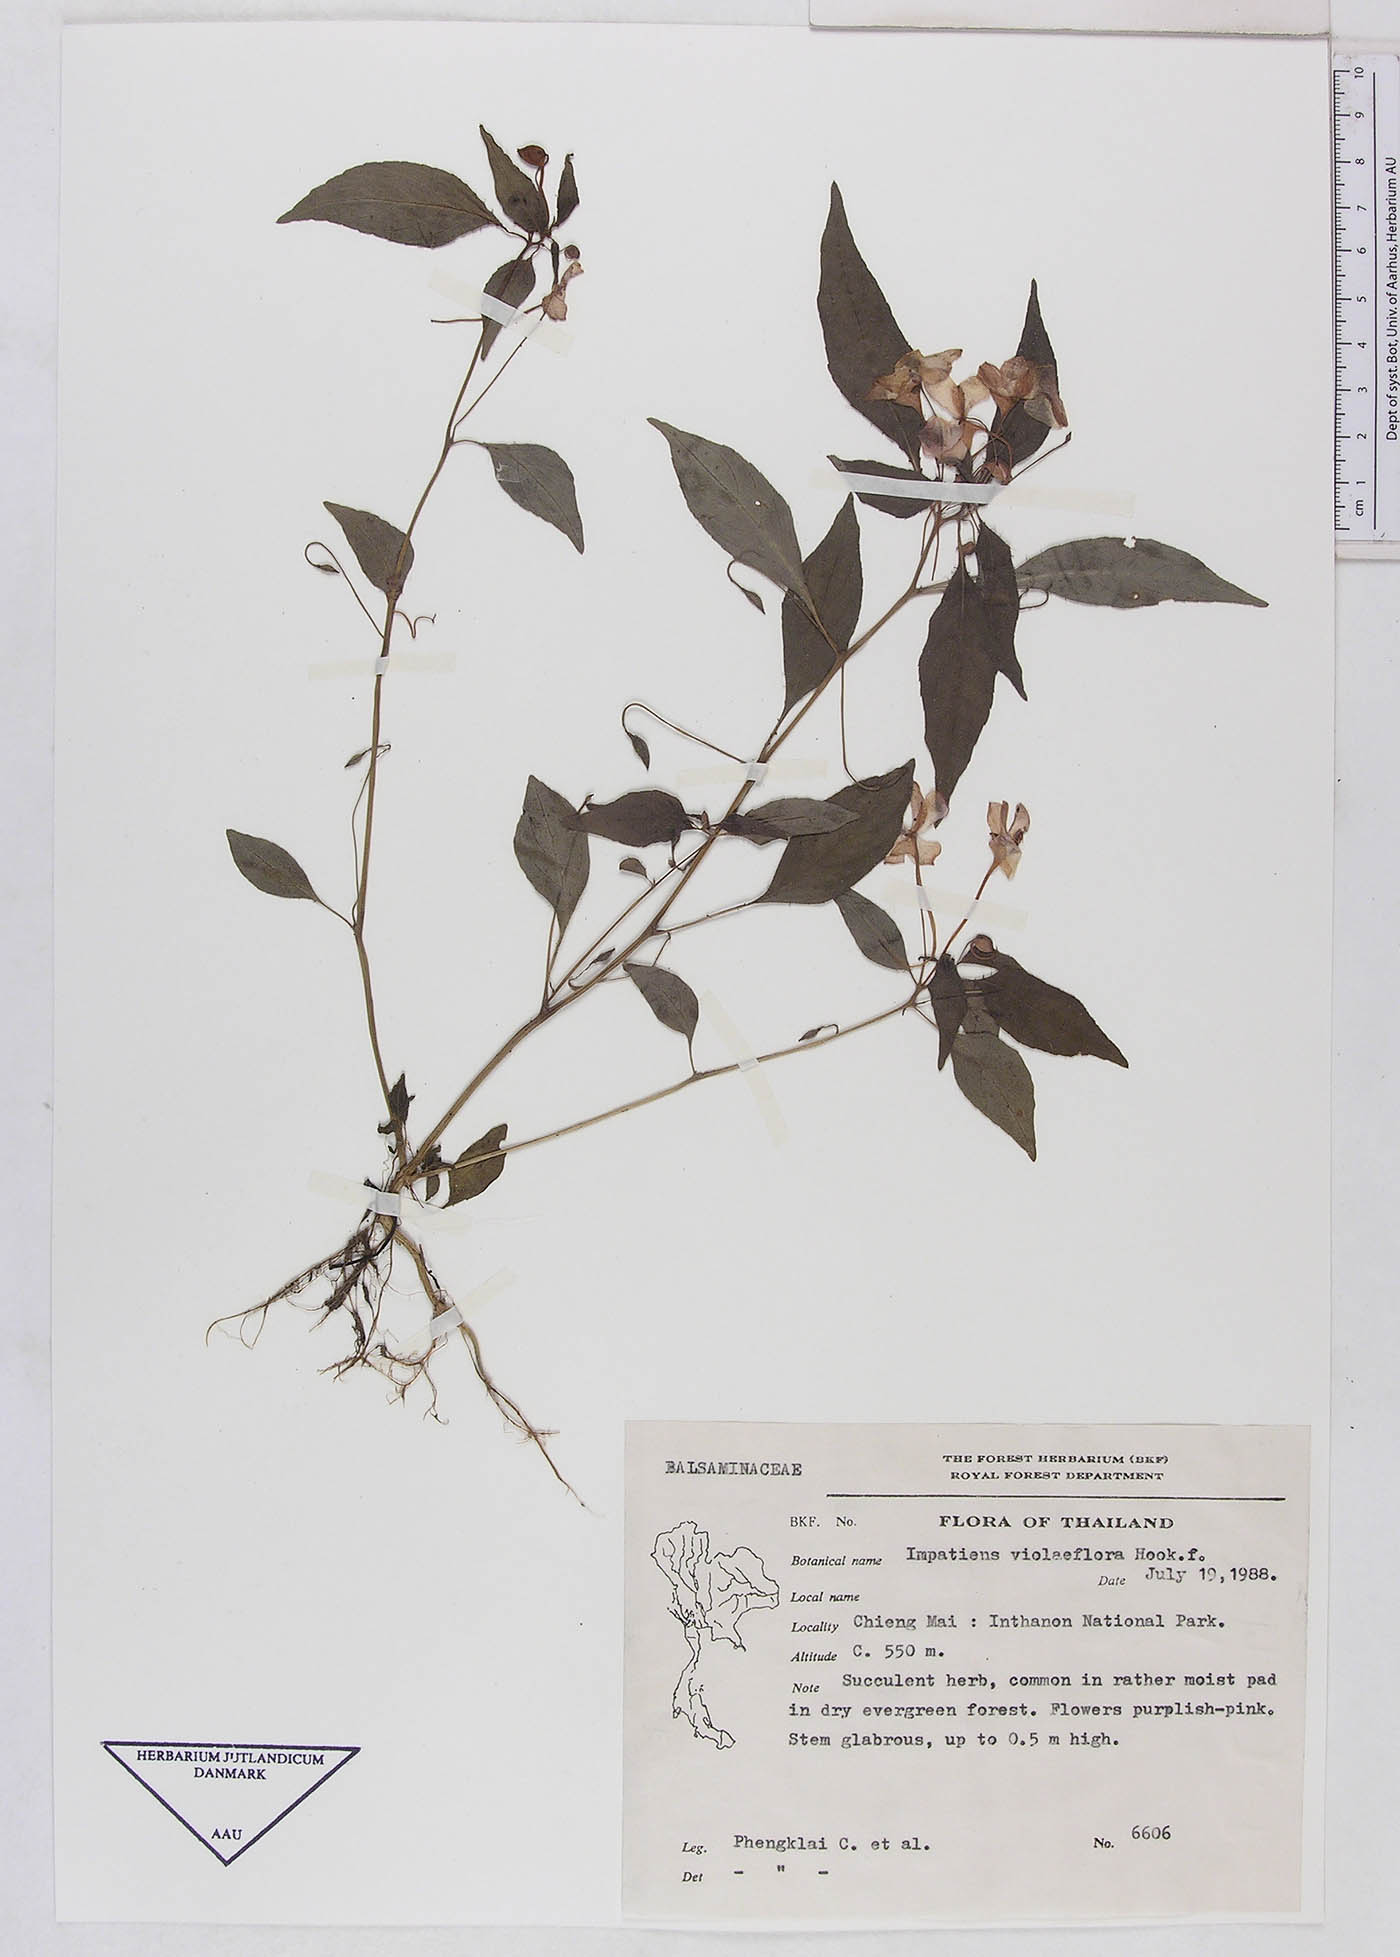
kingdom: Plantae
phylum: Tracheophyta
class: Magnoliopsida
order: Ericales
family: Balsaminaceae
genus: Impatiens
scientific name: Impatiens violiflora
